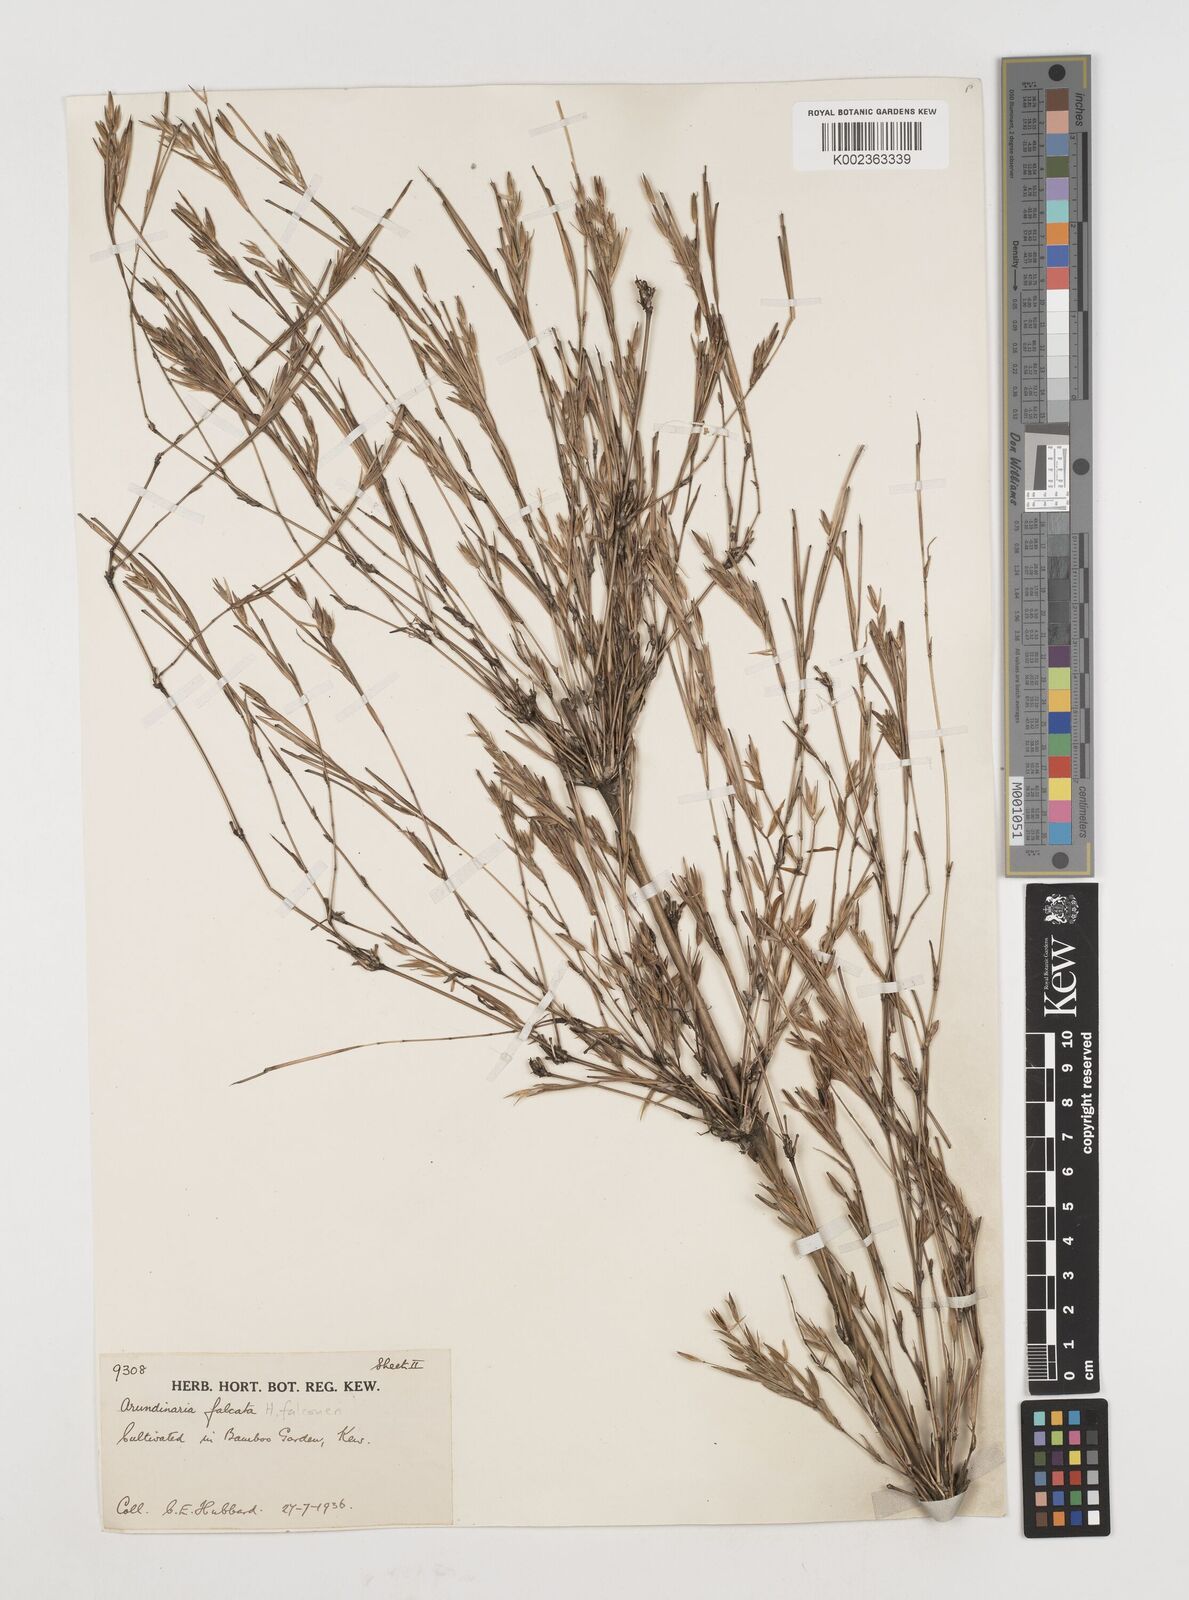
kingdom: Plantae
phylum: Tracheophyta
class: Liliopsida
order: Poales
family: Poaceae
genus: Himalayacalamus
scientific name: Himalayacalamus falconeri
